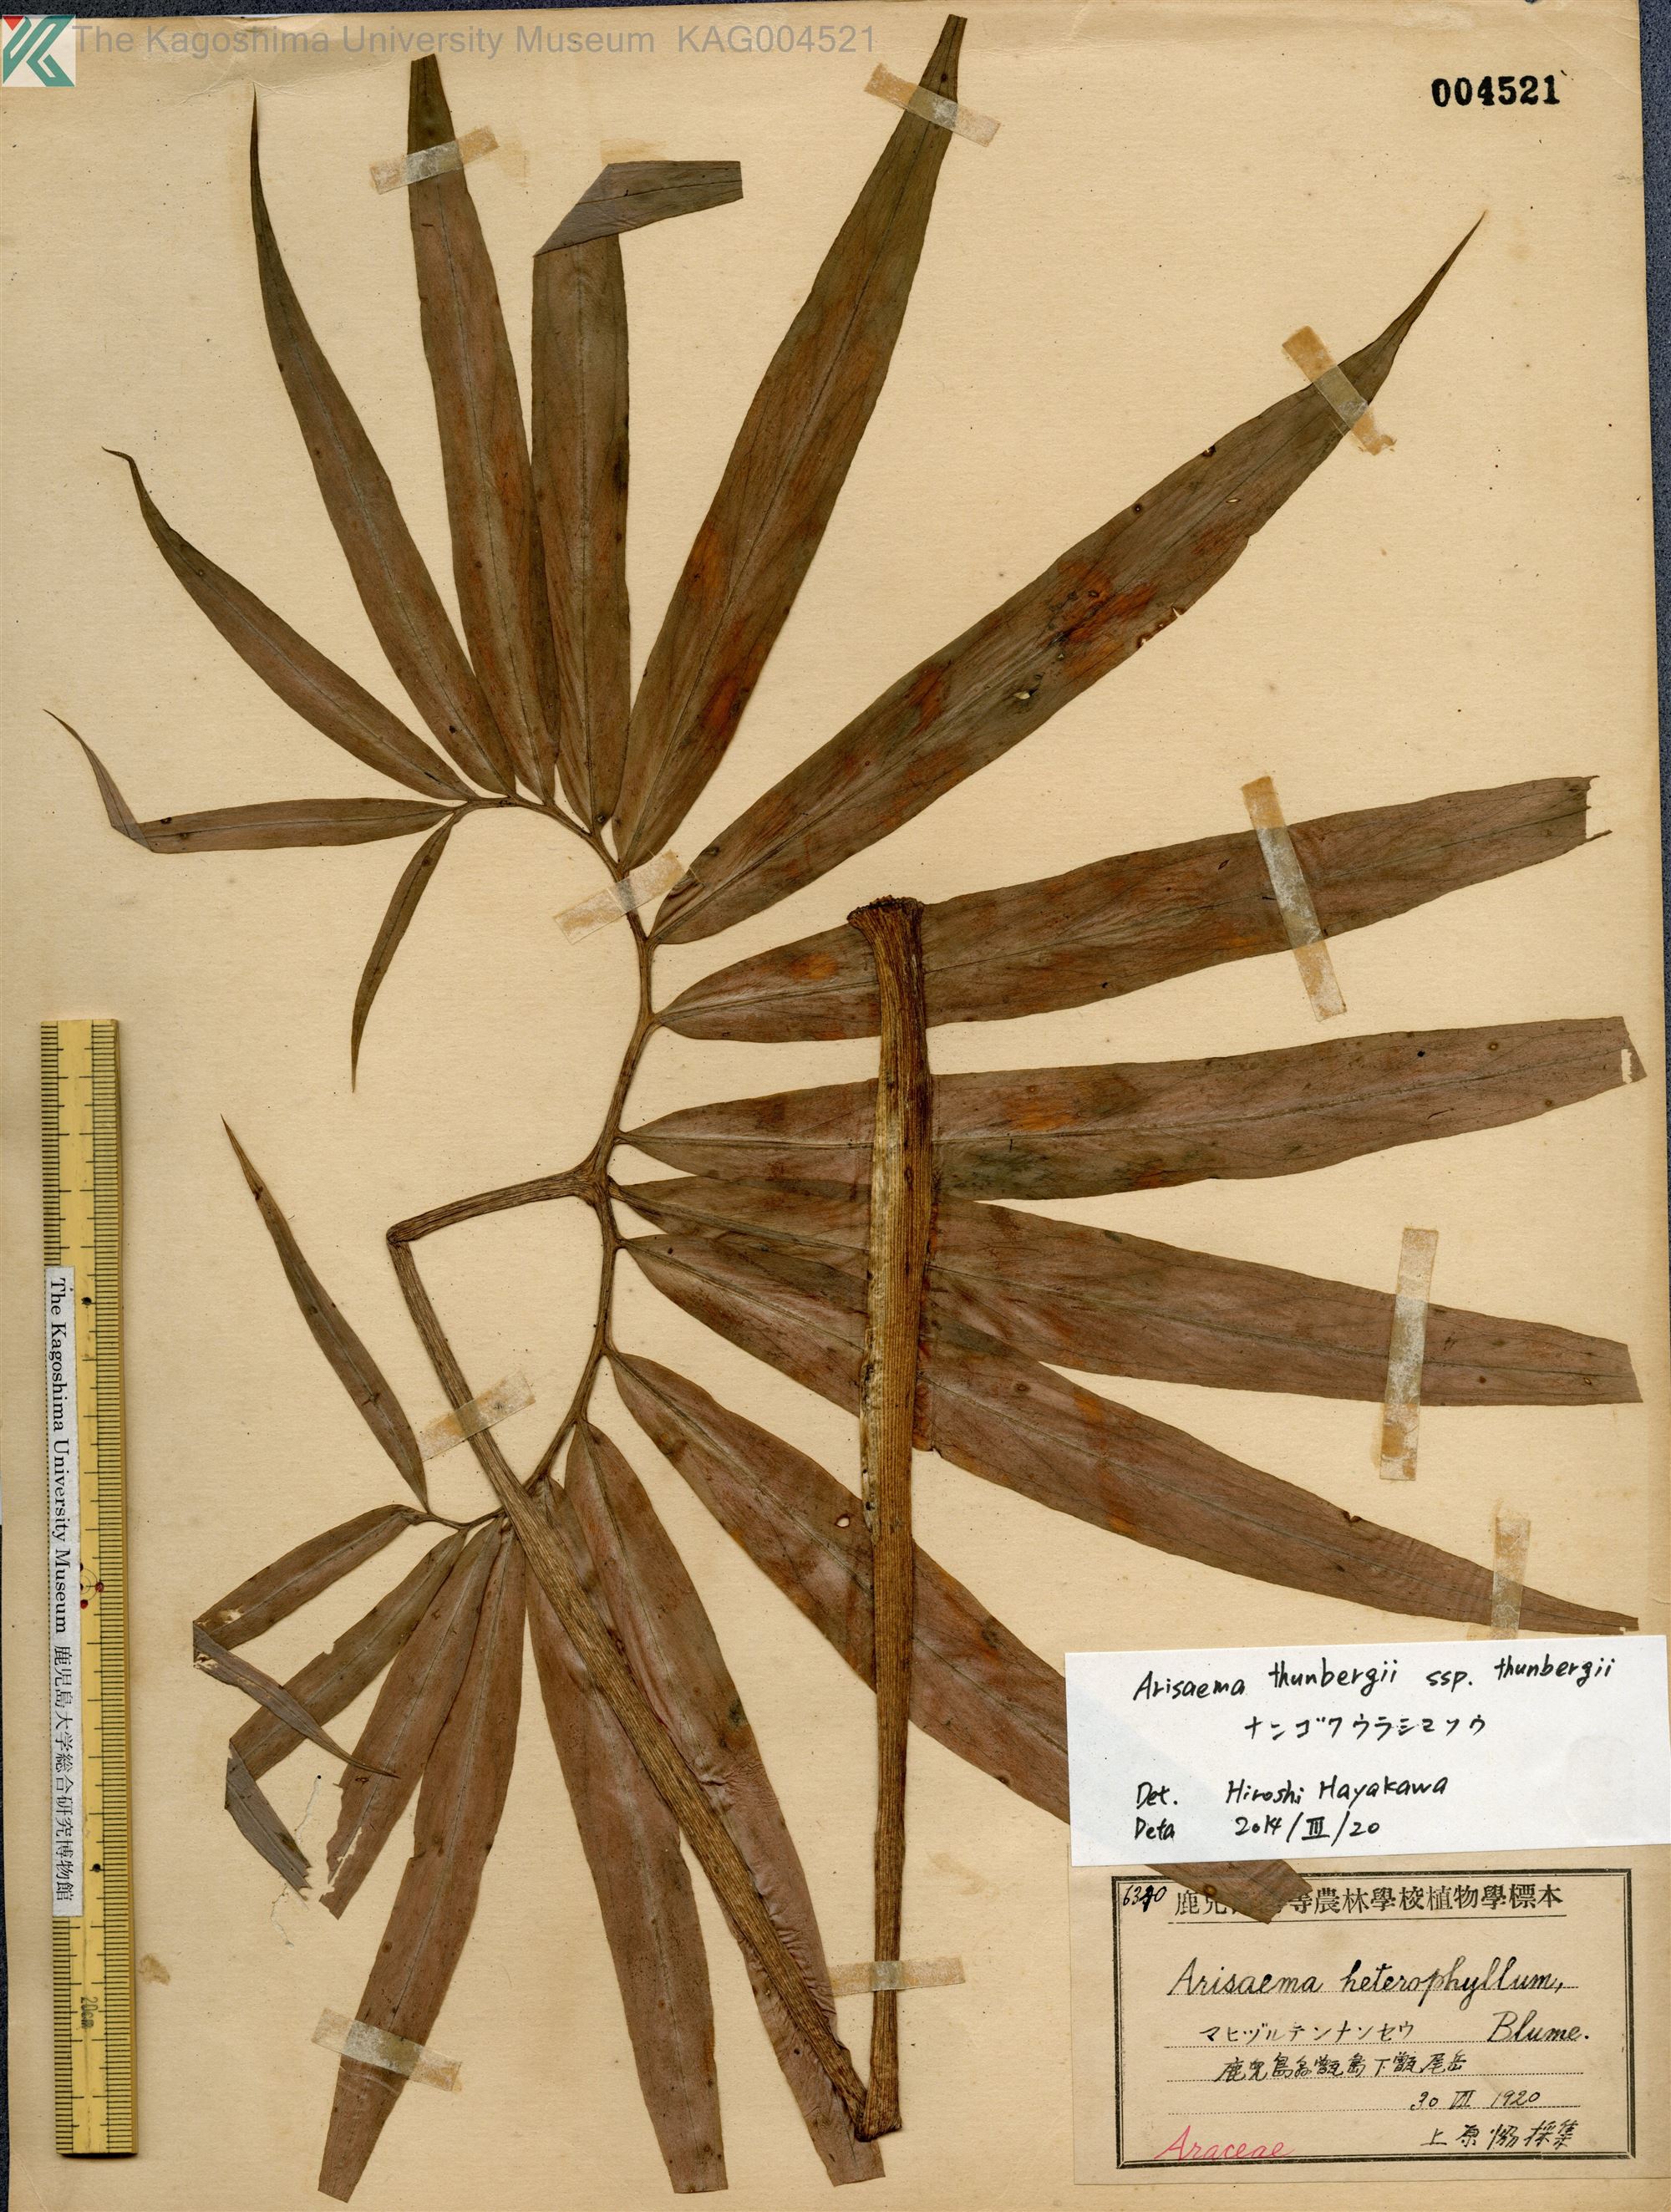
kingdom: Plantae
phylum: Tracheophyta
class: Liliopsida
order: Alismatales
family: Araceae
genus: Arisaema
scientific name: Arisaema thunbergii
